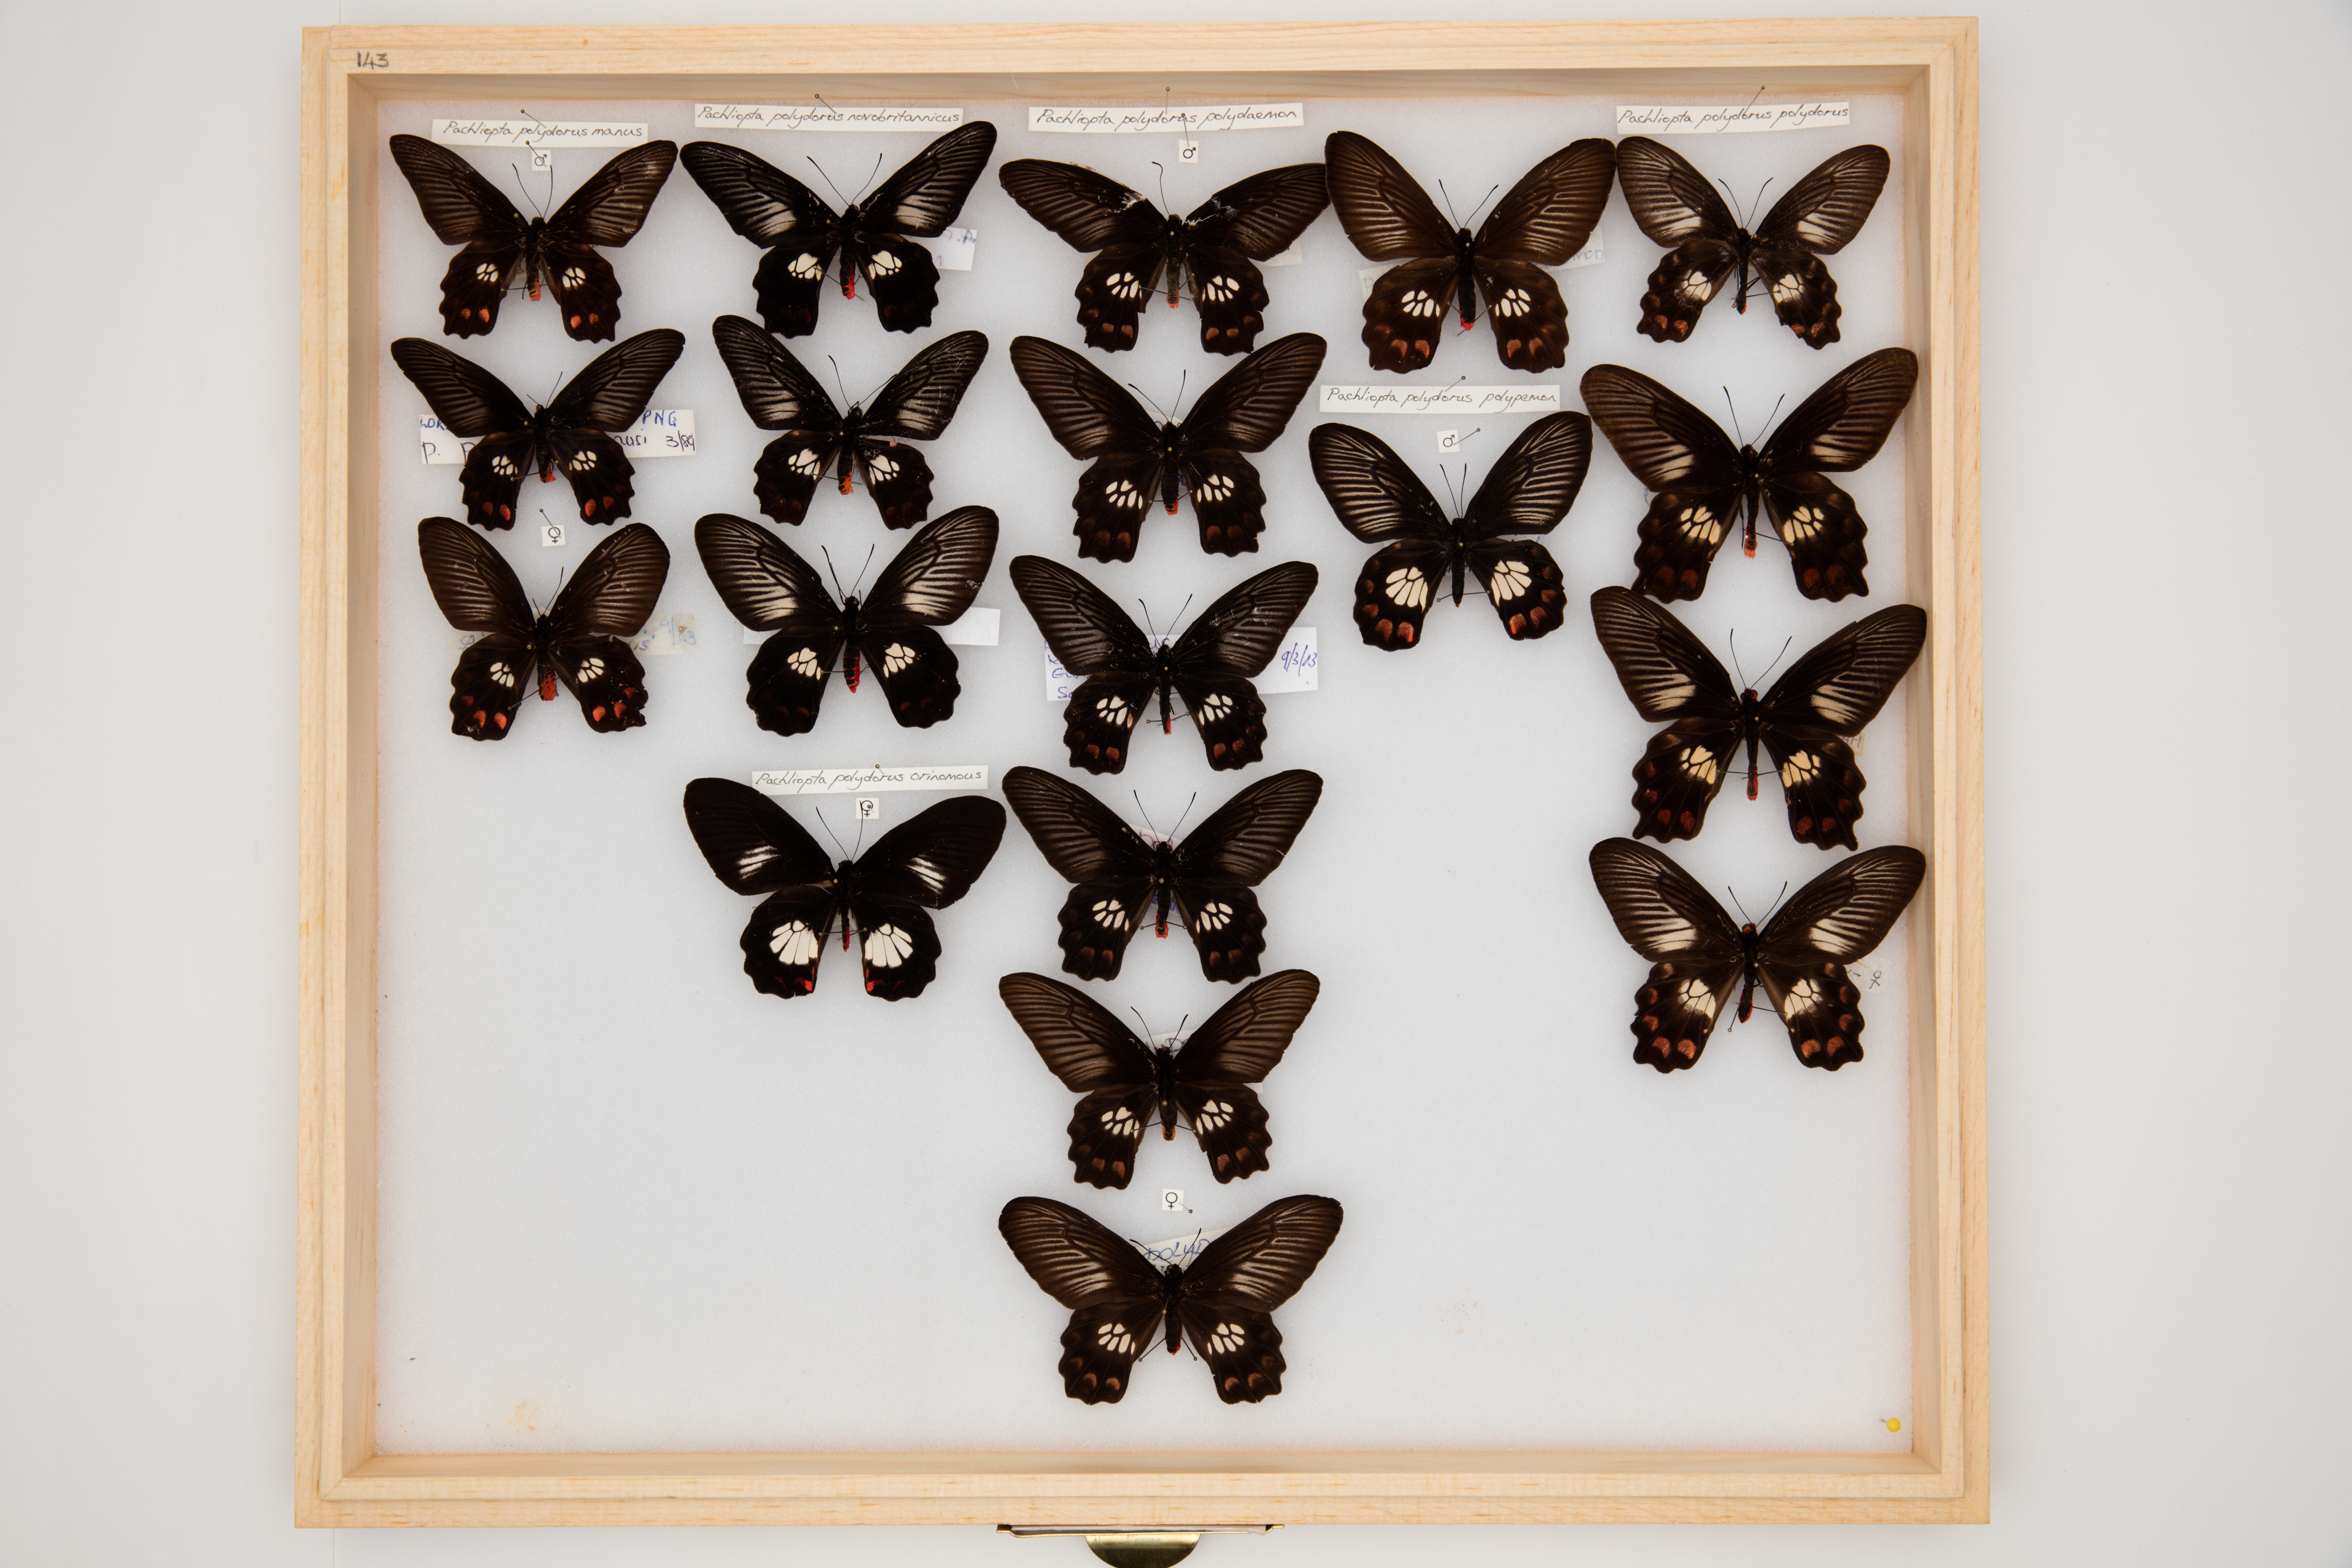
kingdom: Animalia
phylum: Arthropoda
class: Insecta
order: Lepidoptera
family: Papilionidae
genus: Pachliopta
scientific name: Pachliopta polydorus
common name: Red-bodied swallowtail
